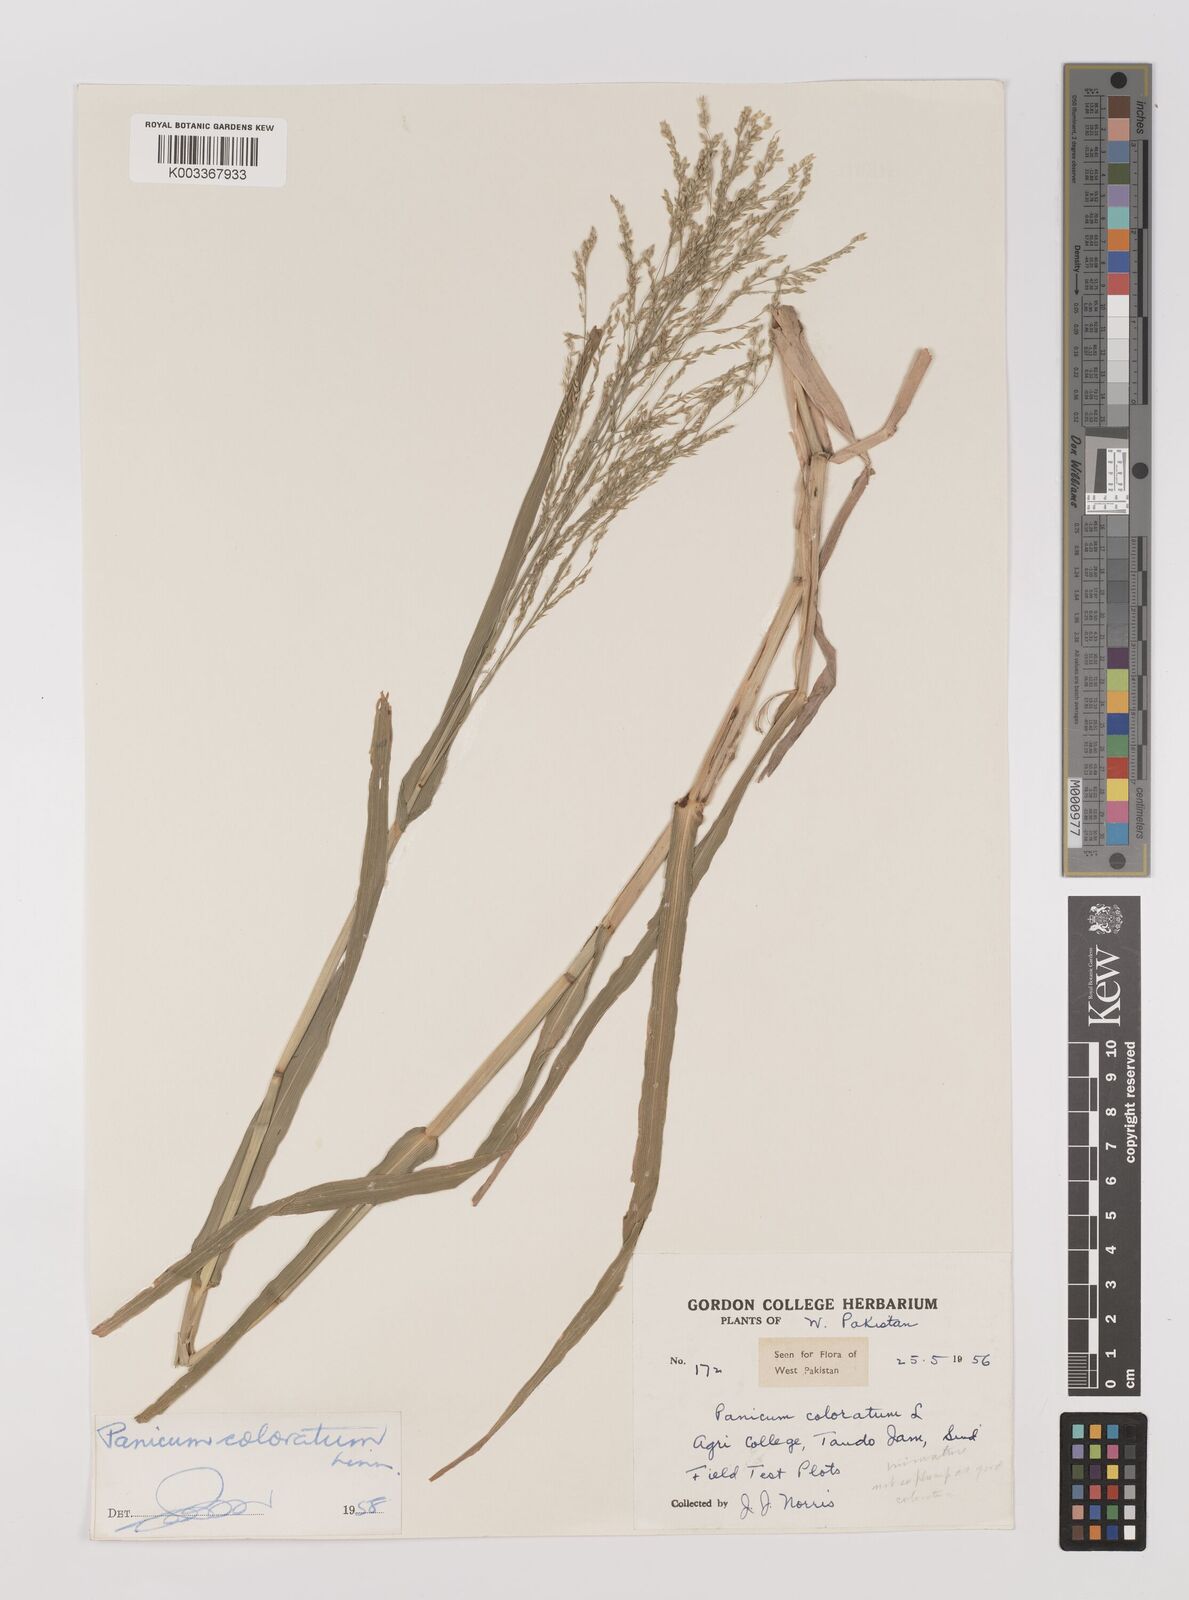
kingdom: Plantae
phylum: Tracheophyta
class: Liliopsida
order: Poales
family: Poaceae
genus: Panicum
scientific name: Panicum coloratum
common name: Kleingrass
